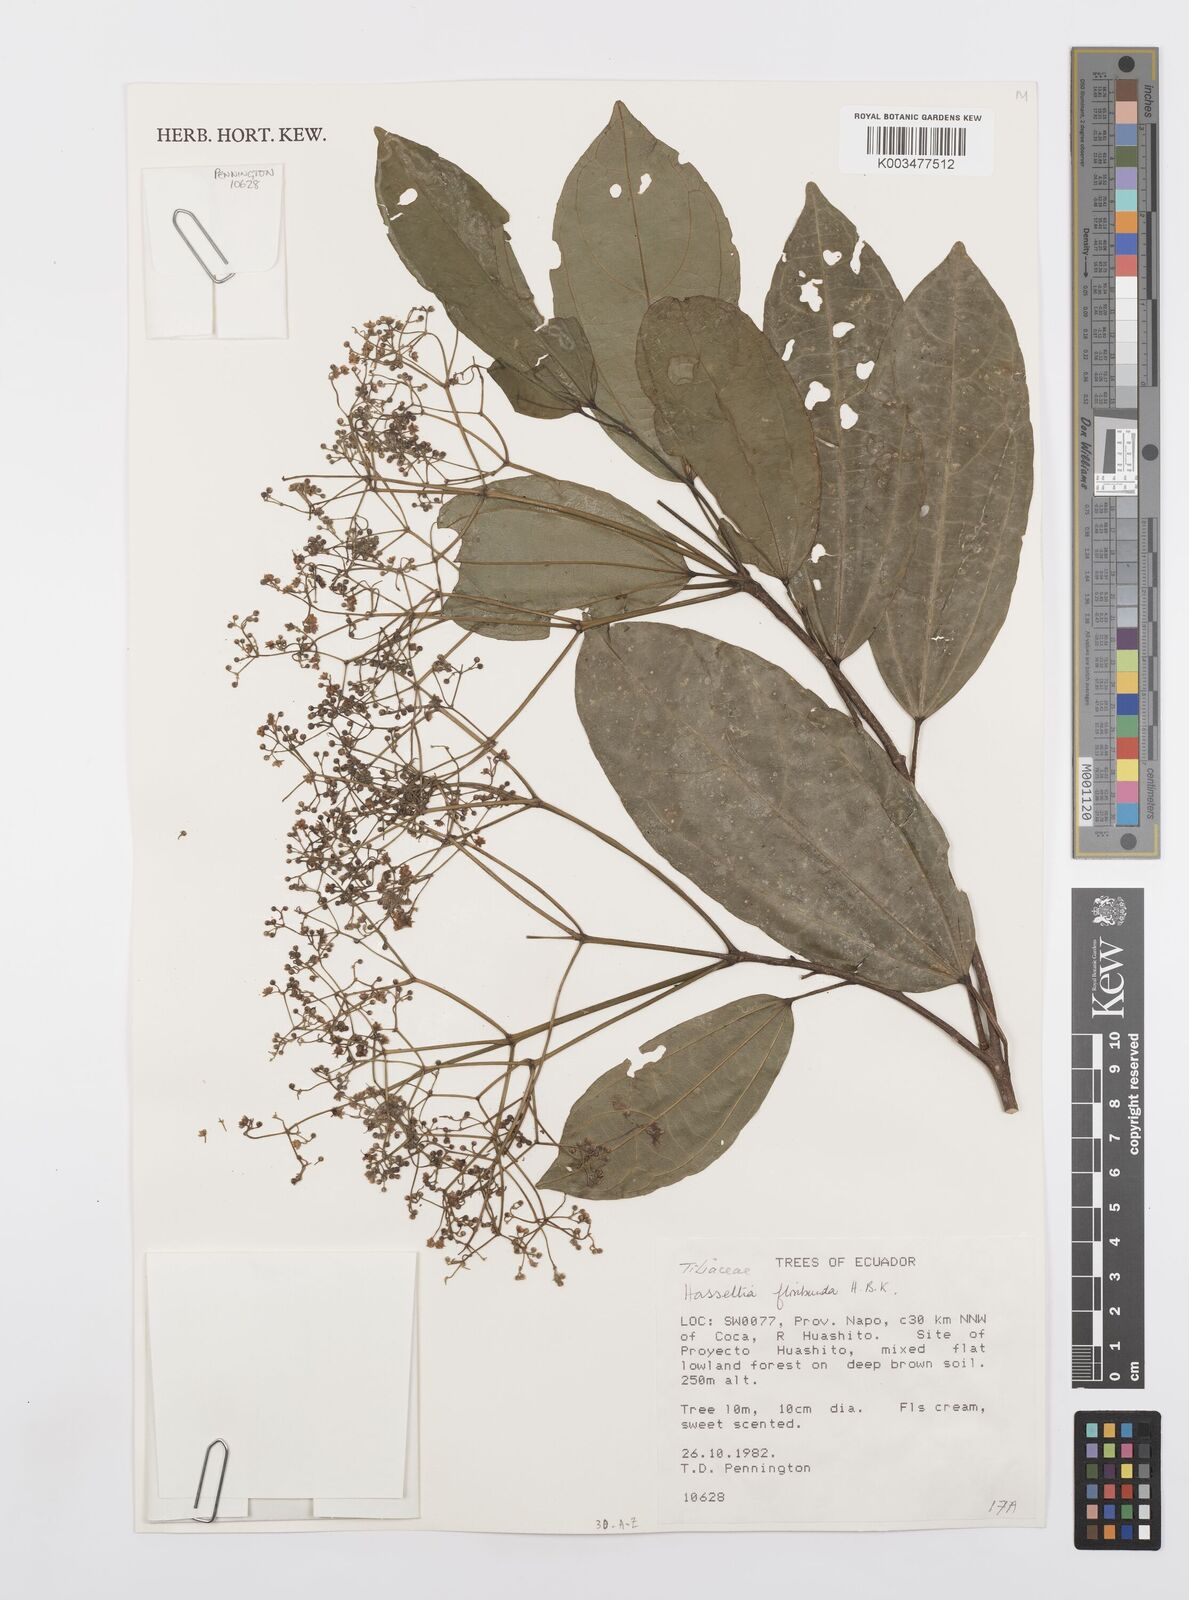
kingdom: Plantae
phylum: Tracheophyta
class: Magnoliopsida
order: Malpighiales
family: Salicaceae
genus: Hasseltia
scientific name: Hasseltia floribunda
